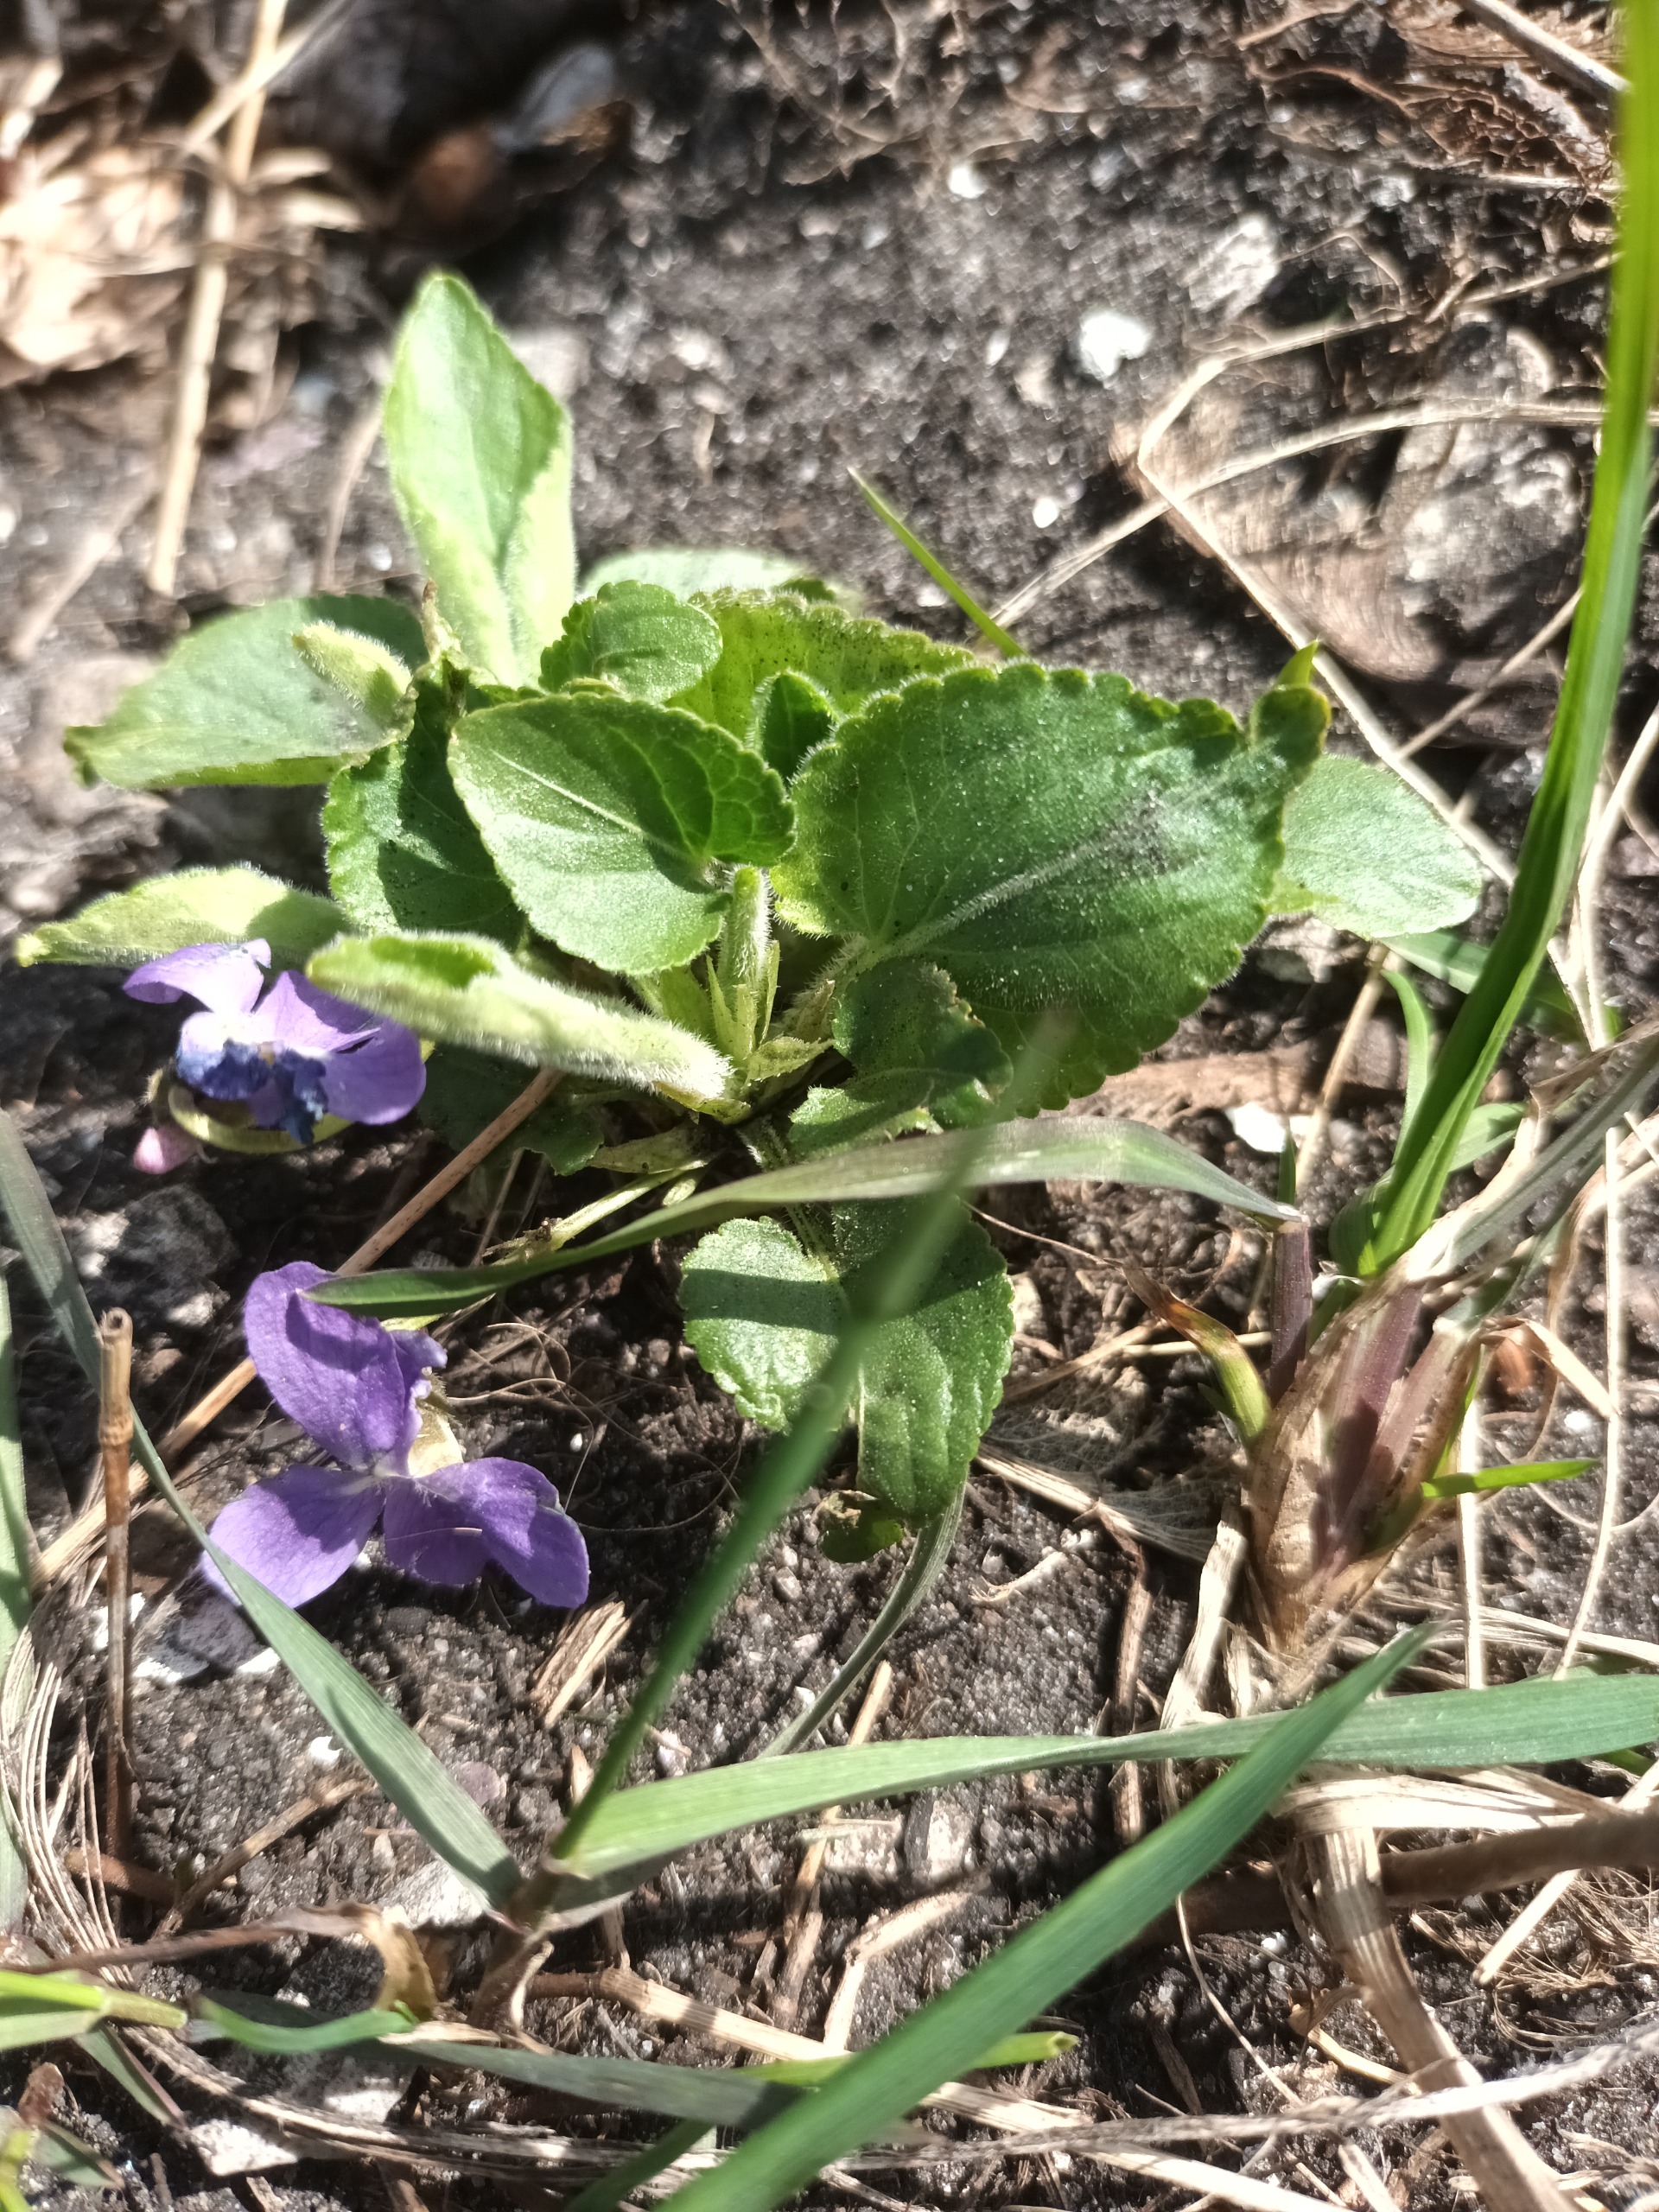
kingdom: Plantae
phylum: Tracheophyta
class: Magnoliopsida
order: Malpighiales
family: Violaceae
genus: Viola
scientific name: Viola hirta
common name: Håret viol
